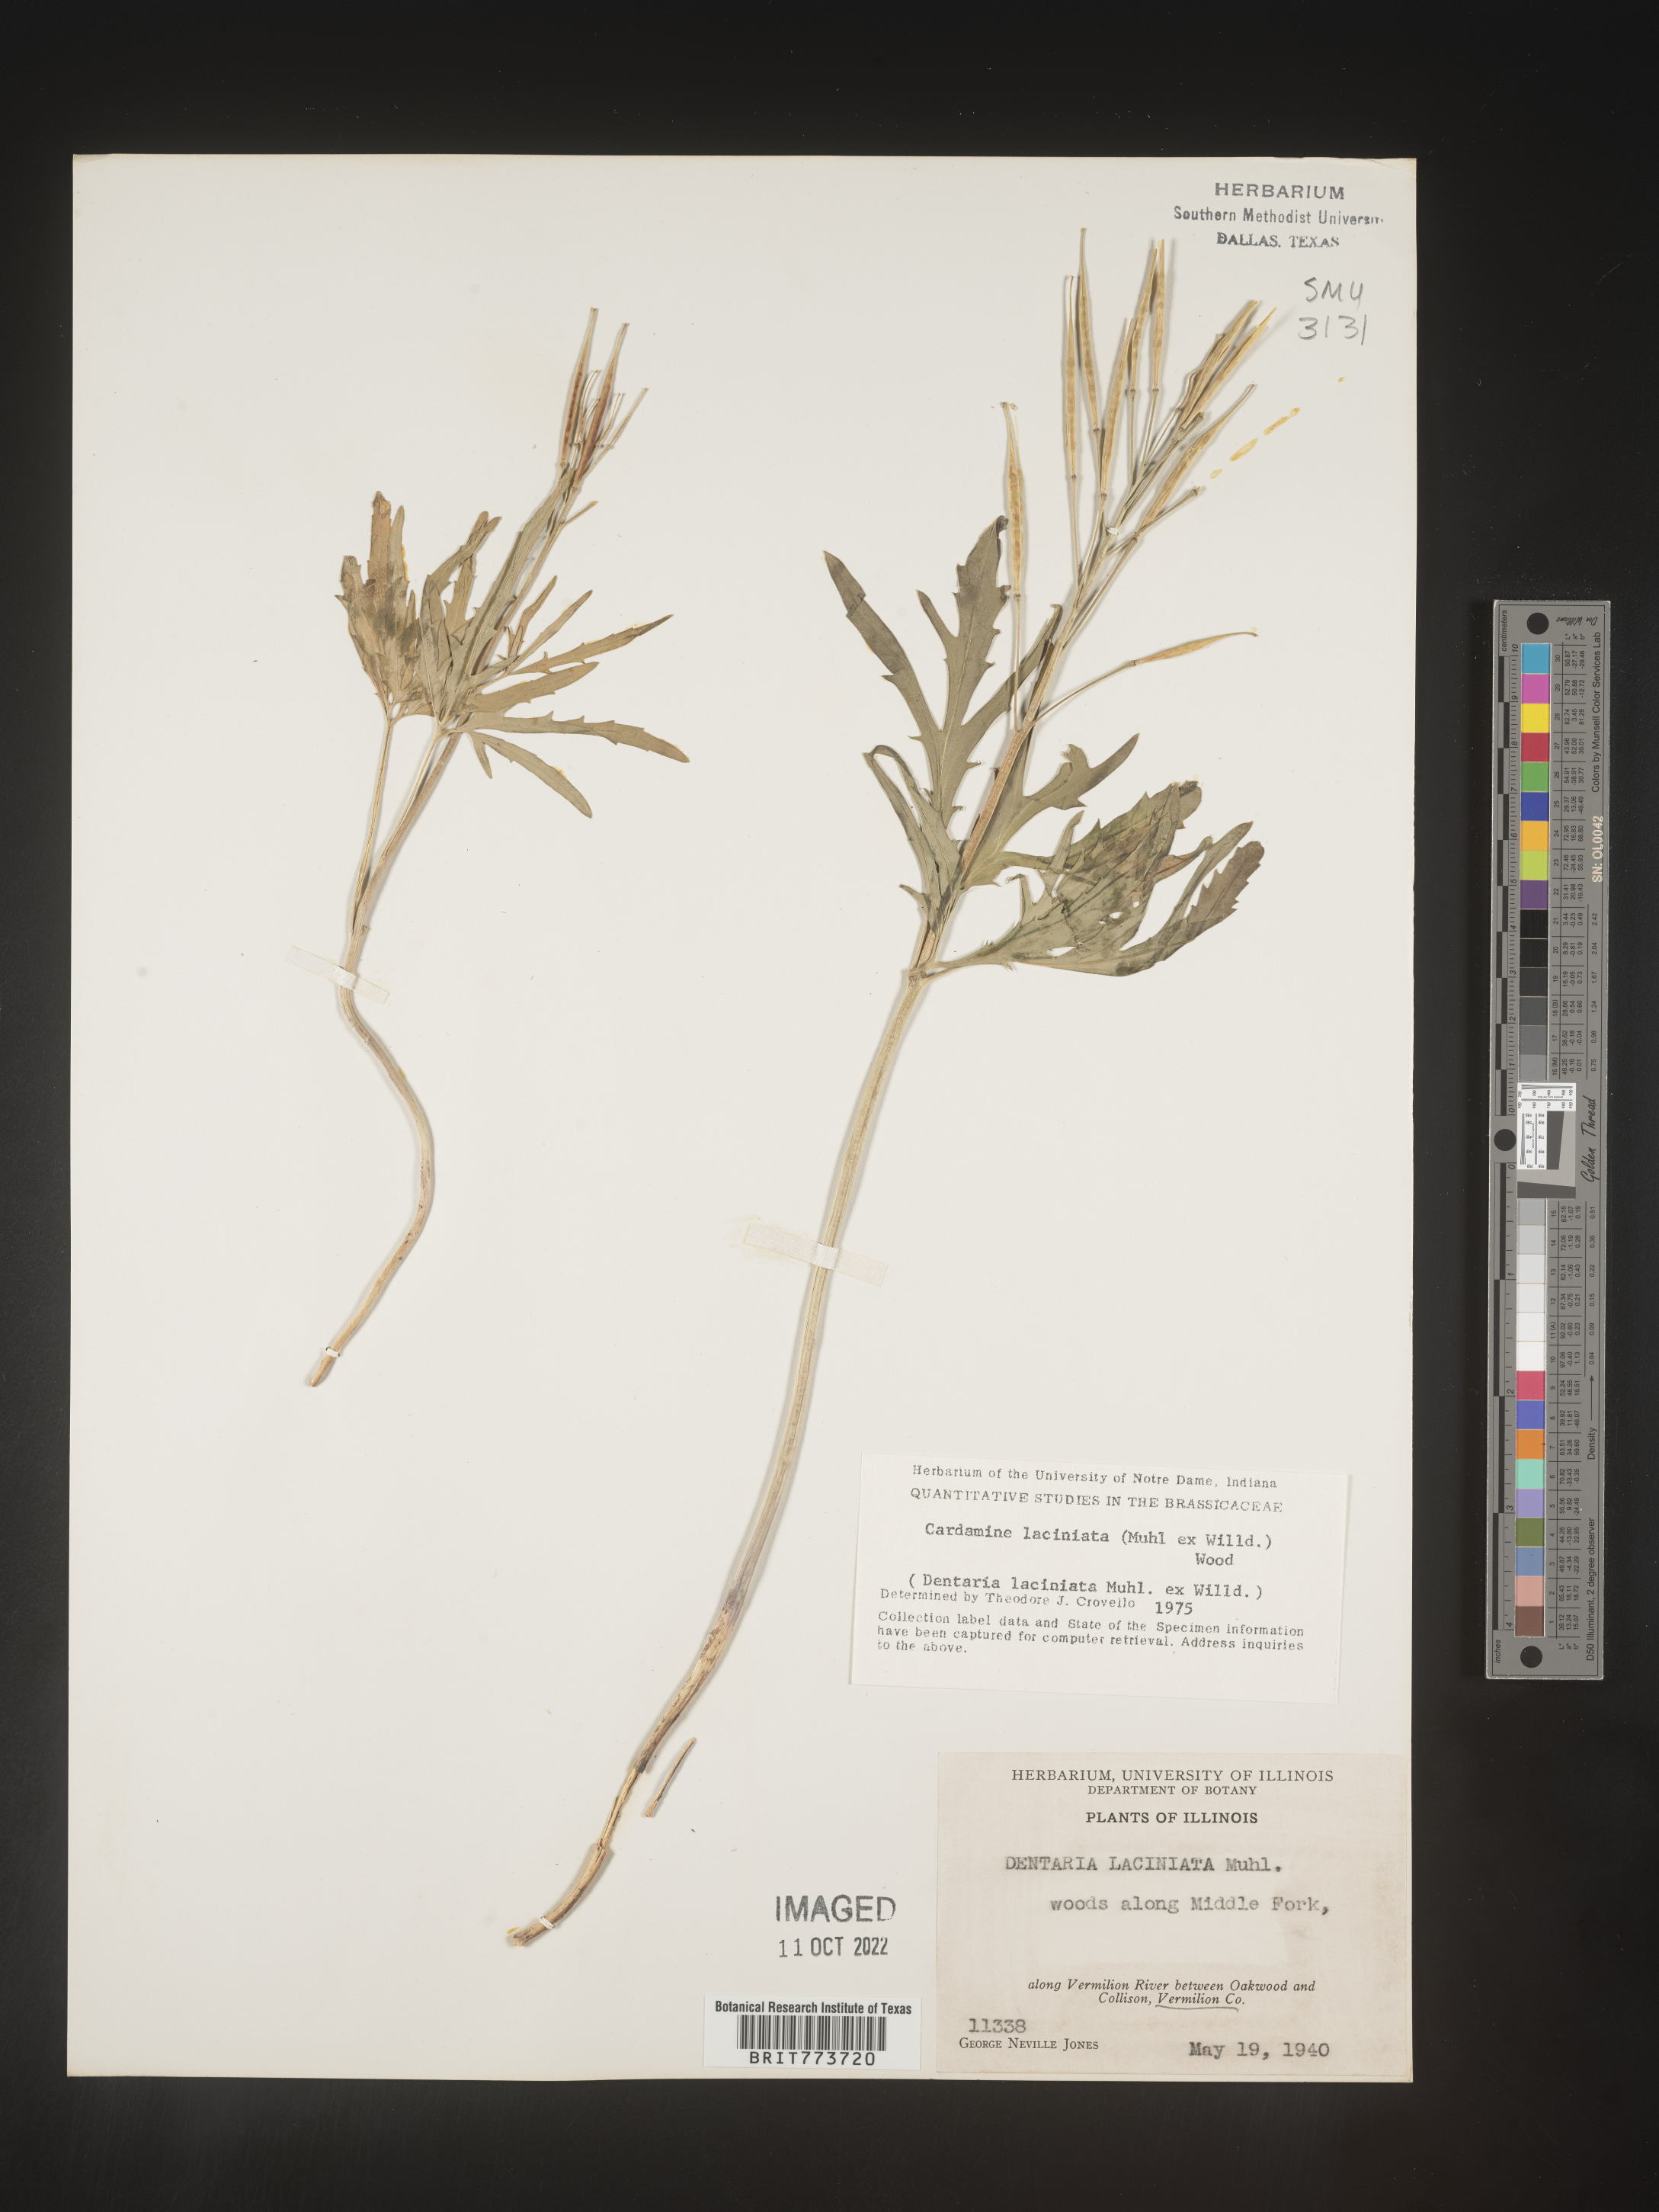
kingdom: Plantae
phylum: Tracheophyta
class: Magnoliopsida
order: Brassicales
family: Brassicaceae
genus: Rorippa
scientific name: Rorippa laciniata
